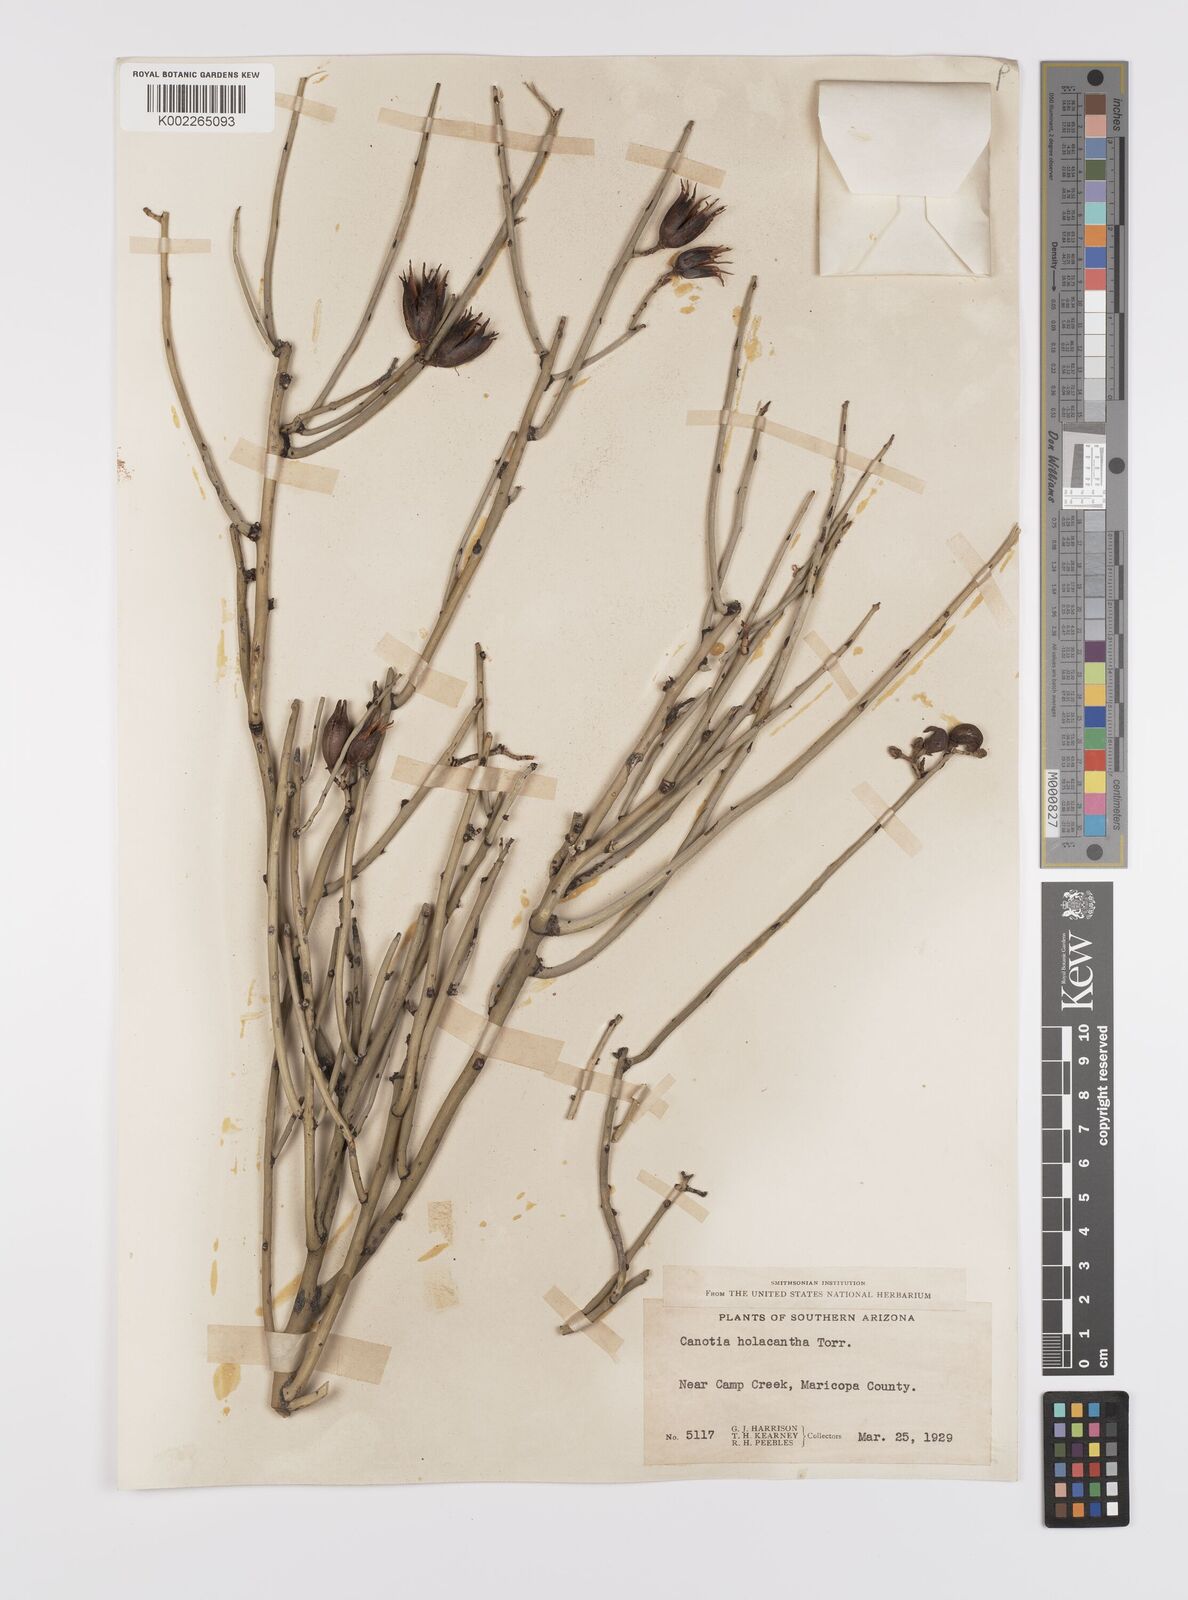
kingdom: Plantae
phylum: Tracheophyta
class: Magnoliopsida
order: Celastrales
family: Celastraceae
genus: Canotia
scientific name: Canotia holacantha
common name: Crucifixion thorns
